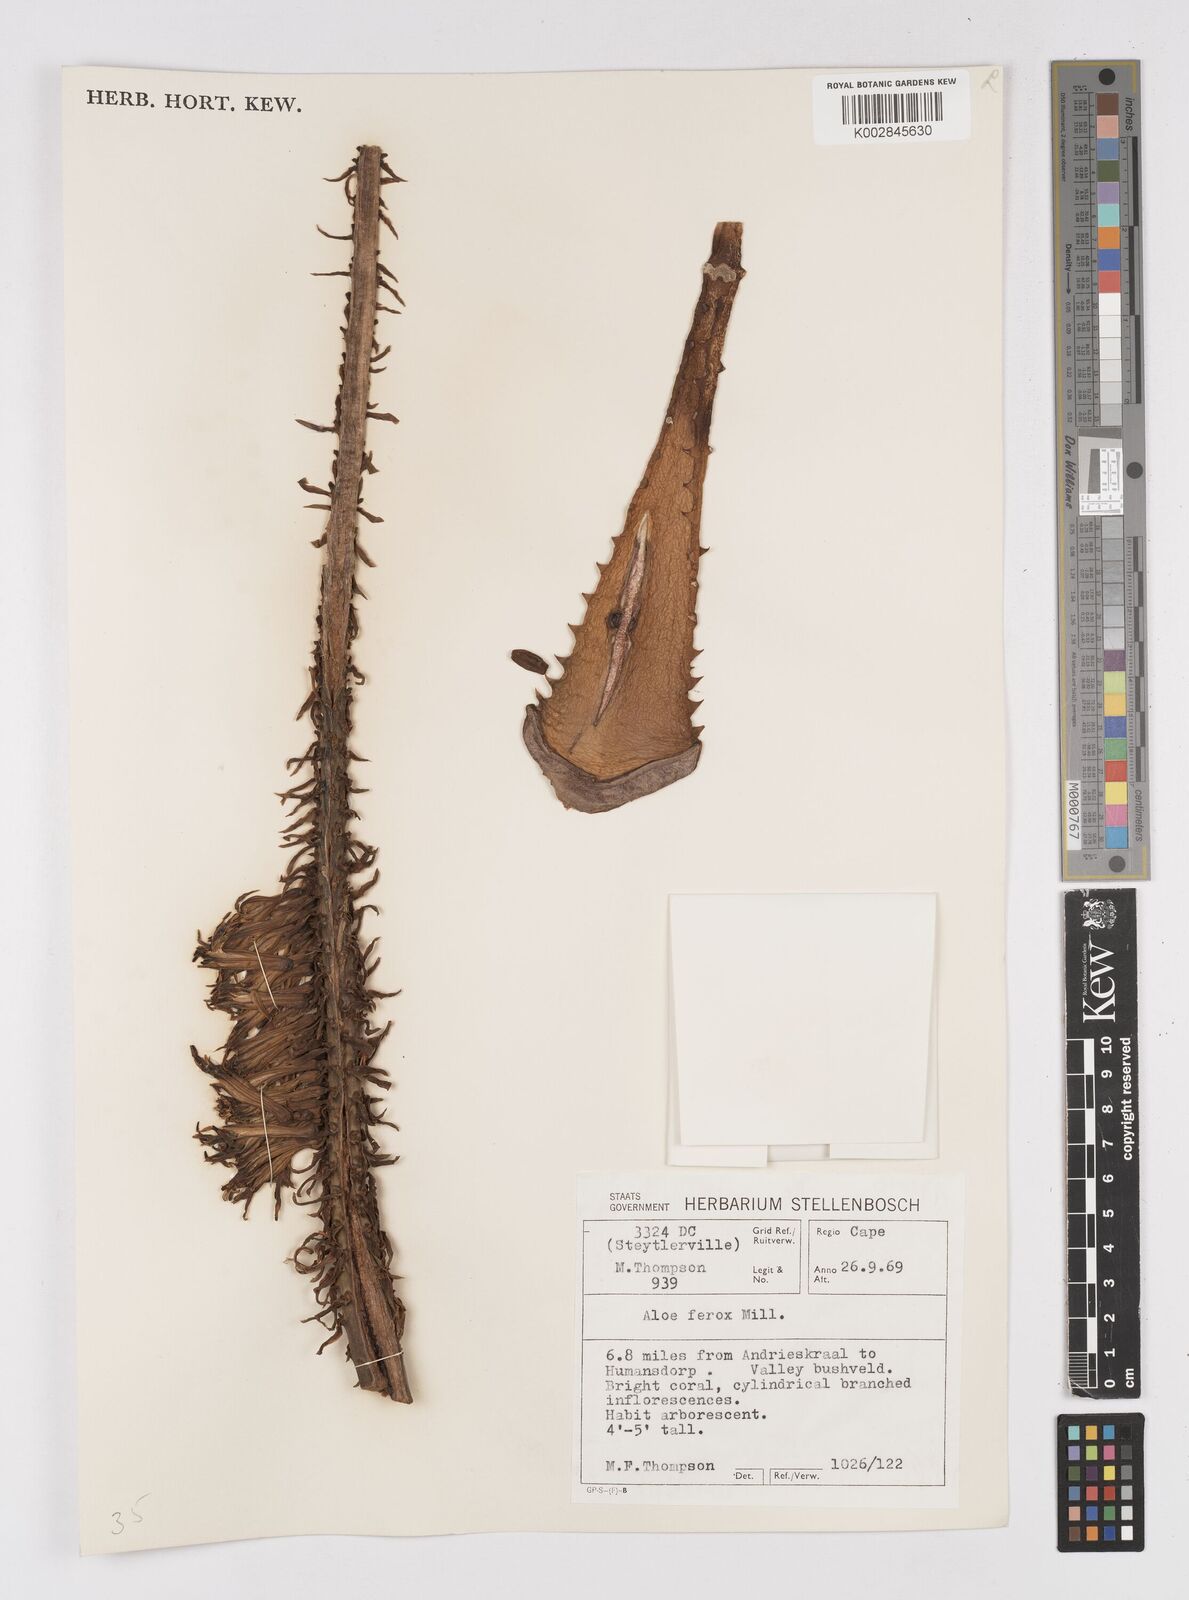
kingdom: Plantae
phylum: Tracheophyta
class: Liliopsida
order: Asparagales
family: Asphodelaceae
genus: Aloe
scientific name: Aloe ferox
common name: Bitter aloe
